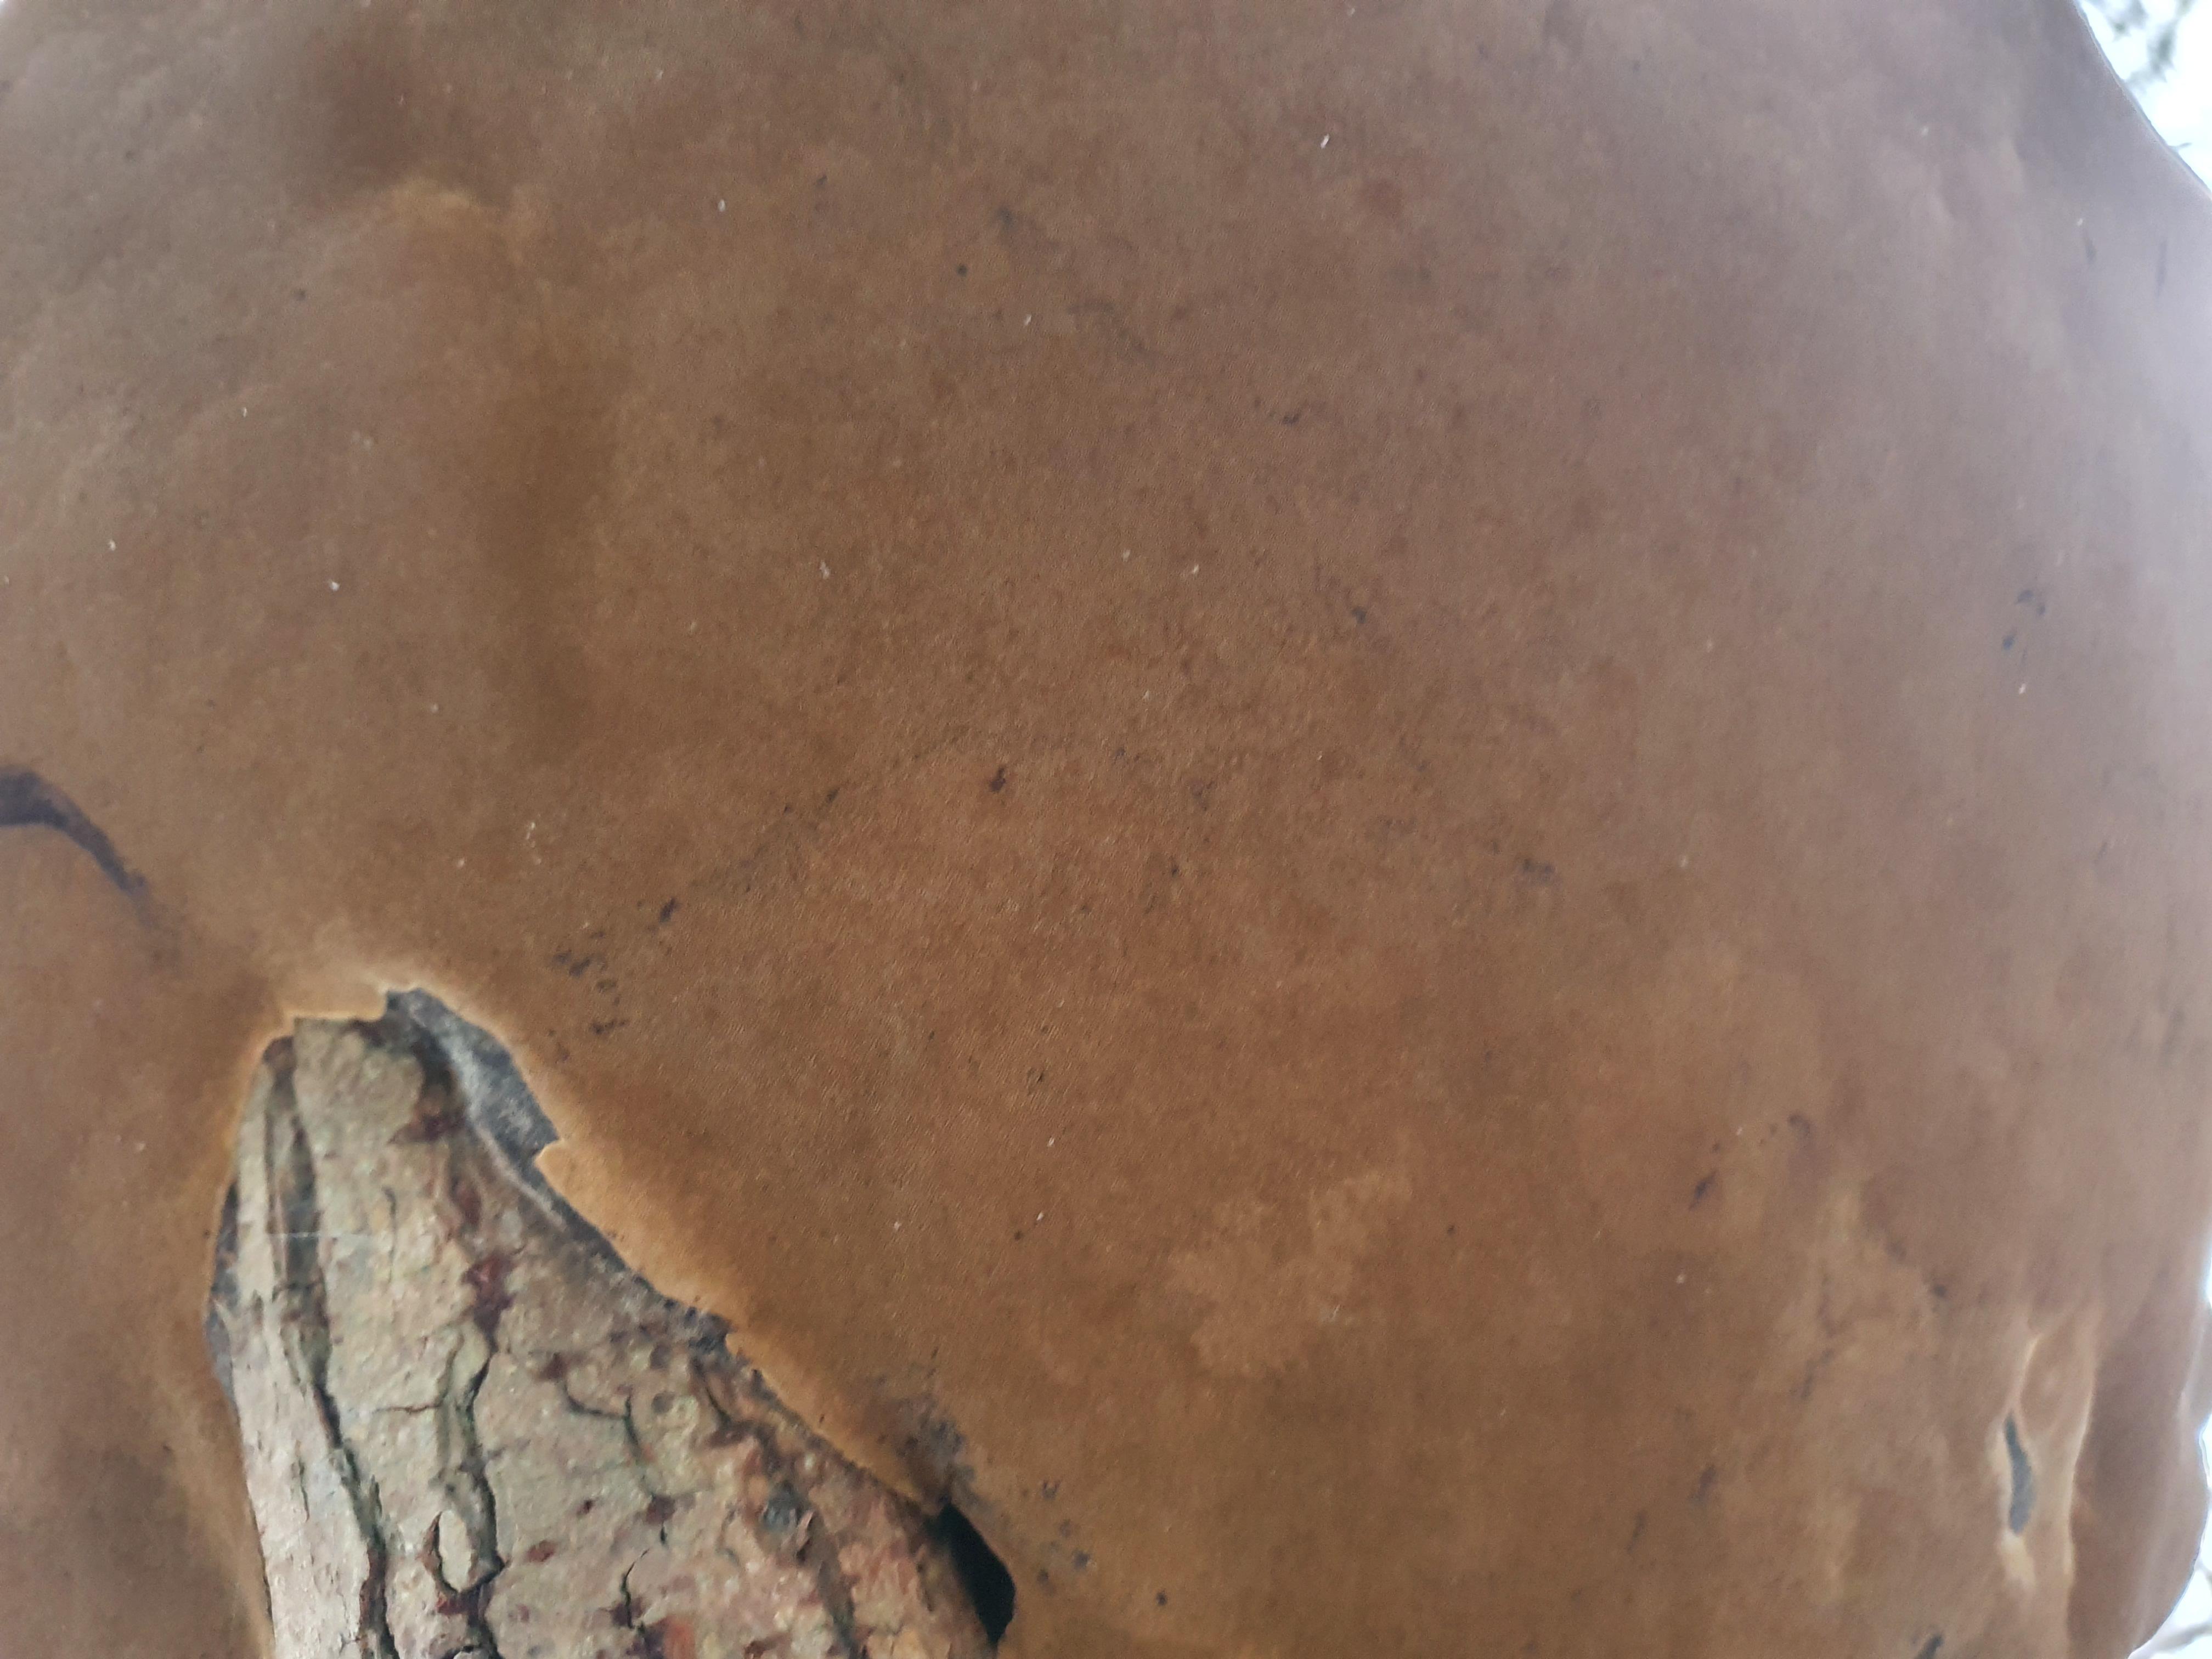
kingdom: Fungi
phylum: Basidiomycota
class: Agaricomycetes
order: Hymenochaetales
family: Hymenochaetaceae
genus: Phellinus
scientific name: Phellinus igniarius
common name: almindelig ildporesvamp
